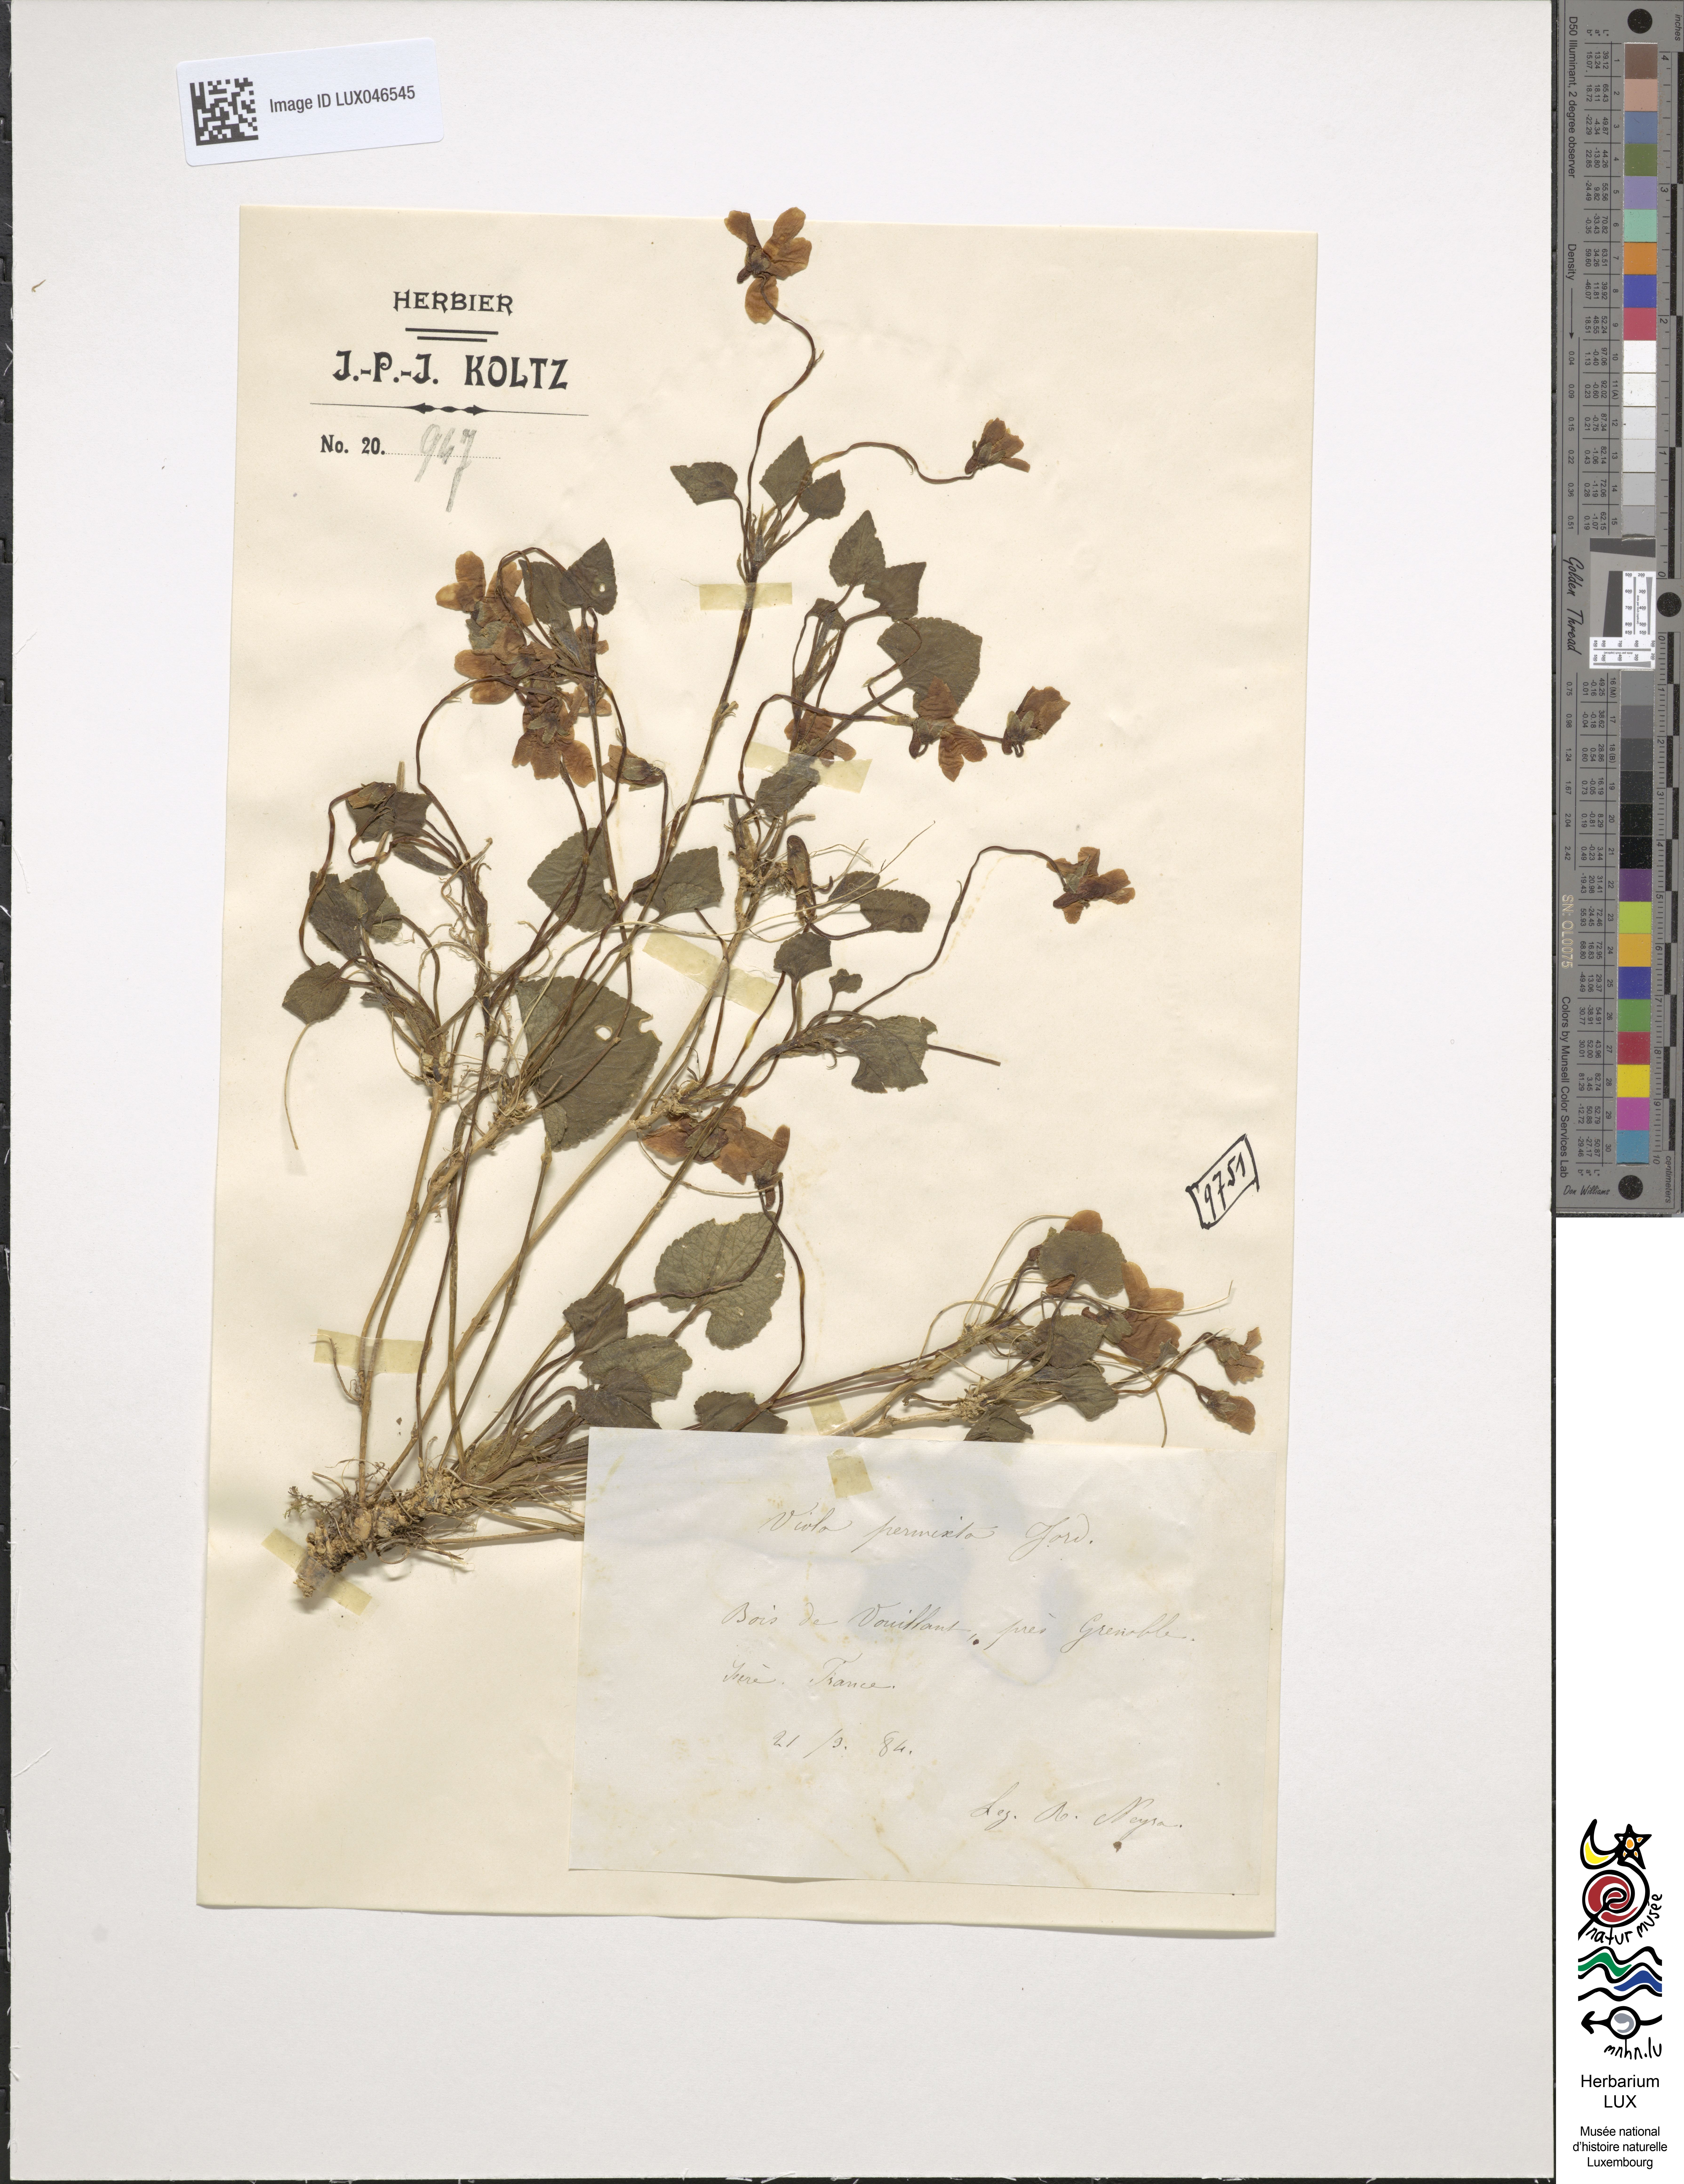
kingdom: Plantae
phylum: Tracheophyta
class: Magnoliopsida
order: Malpighiales
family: Violaceae
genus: Viola
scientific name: Viola scabra
